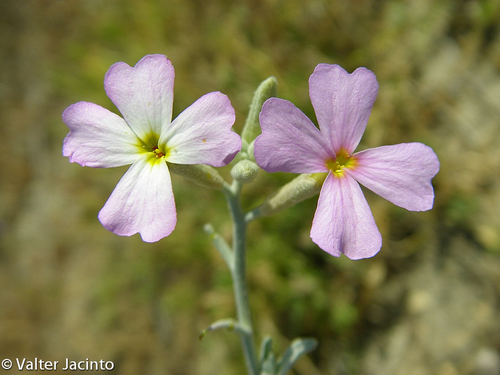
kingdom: Plantae
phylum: Tracheophyta
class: Magnoliopsida
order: Brassicales
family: Brassicaceae
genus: Marcuskochia
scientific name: Marcuskochia littorea
